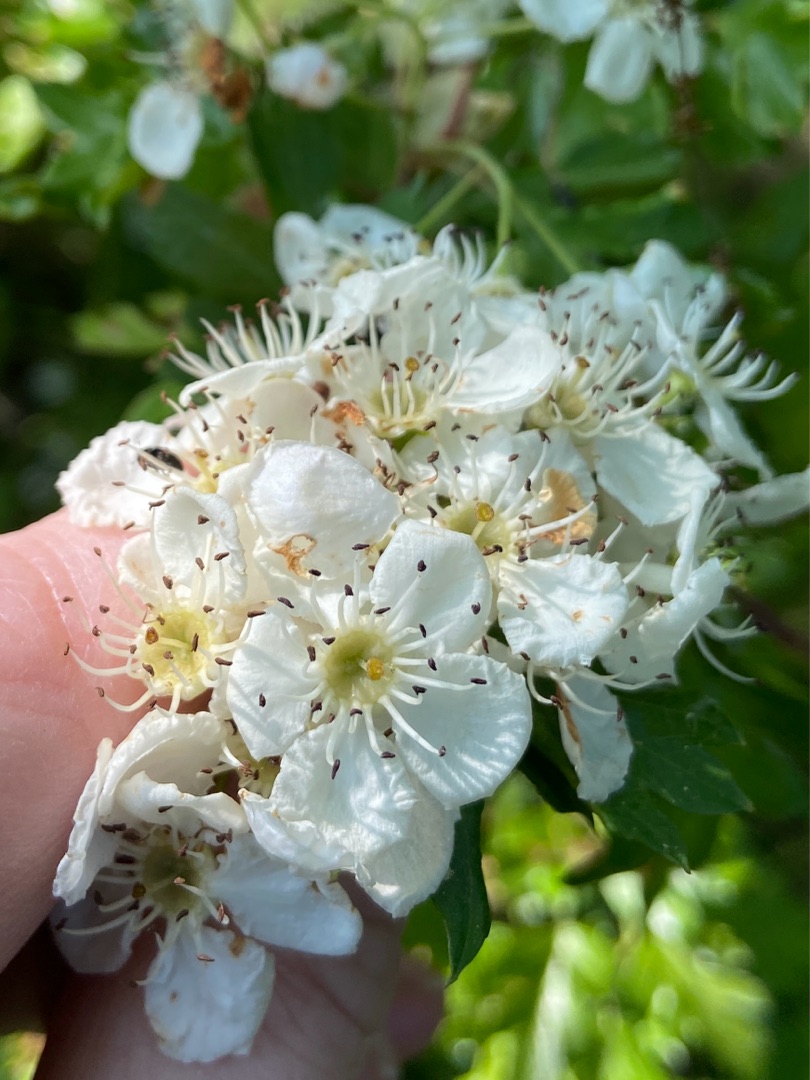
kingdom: Plantae
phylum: Tracheophyta
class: Magnoliopsida
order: Rosales
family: Rosaceae
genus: Crataegus
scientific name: Crataegus monogyna
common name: Engriflet hvidtjørn
